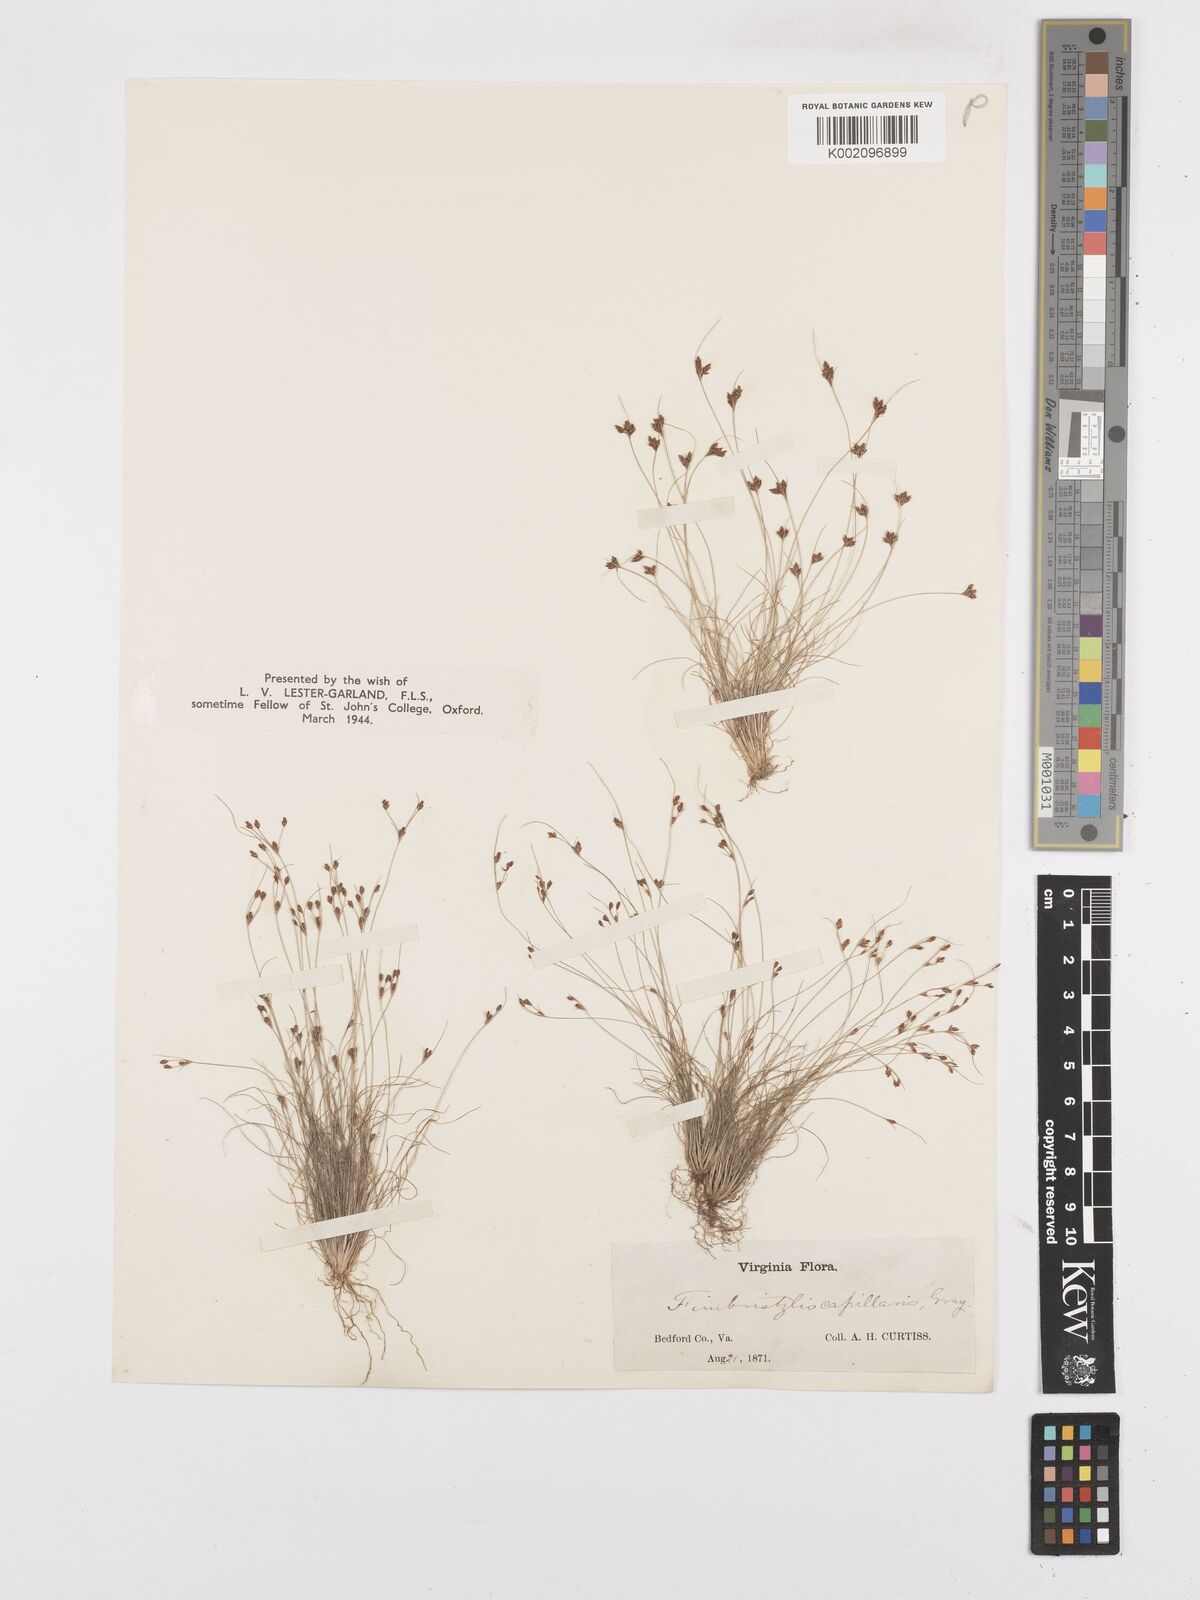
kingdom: Plantae
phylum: Tracheophyta
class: Liliopsida
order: Poales
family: Cyperaceae
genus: Bulbostylis
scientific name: Bulbostylis capillaris
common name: Densetuft hairsedge
